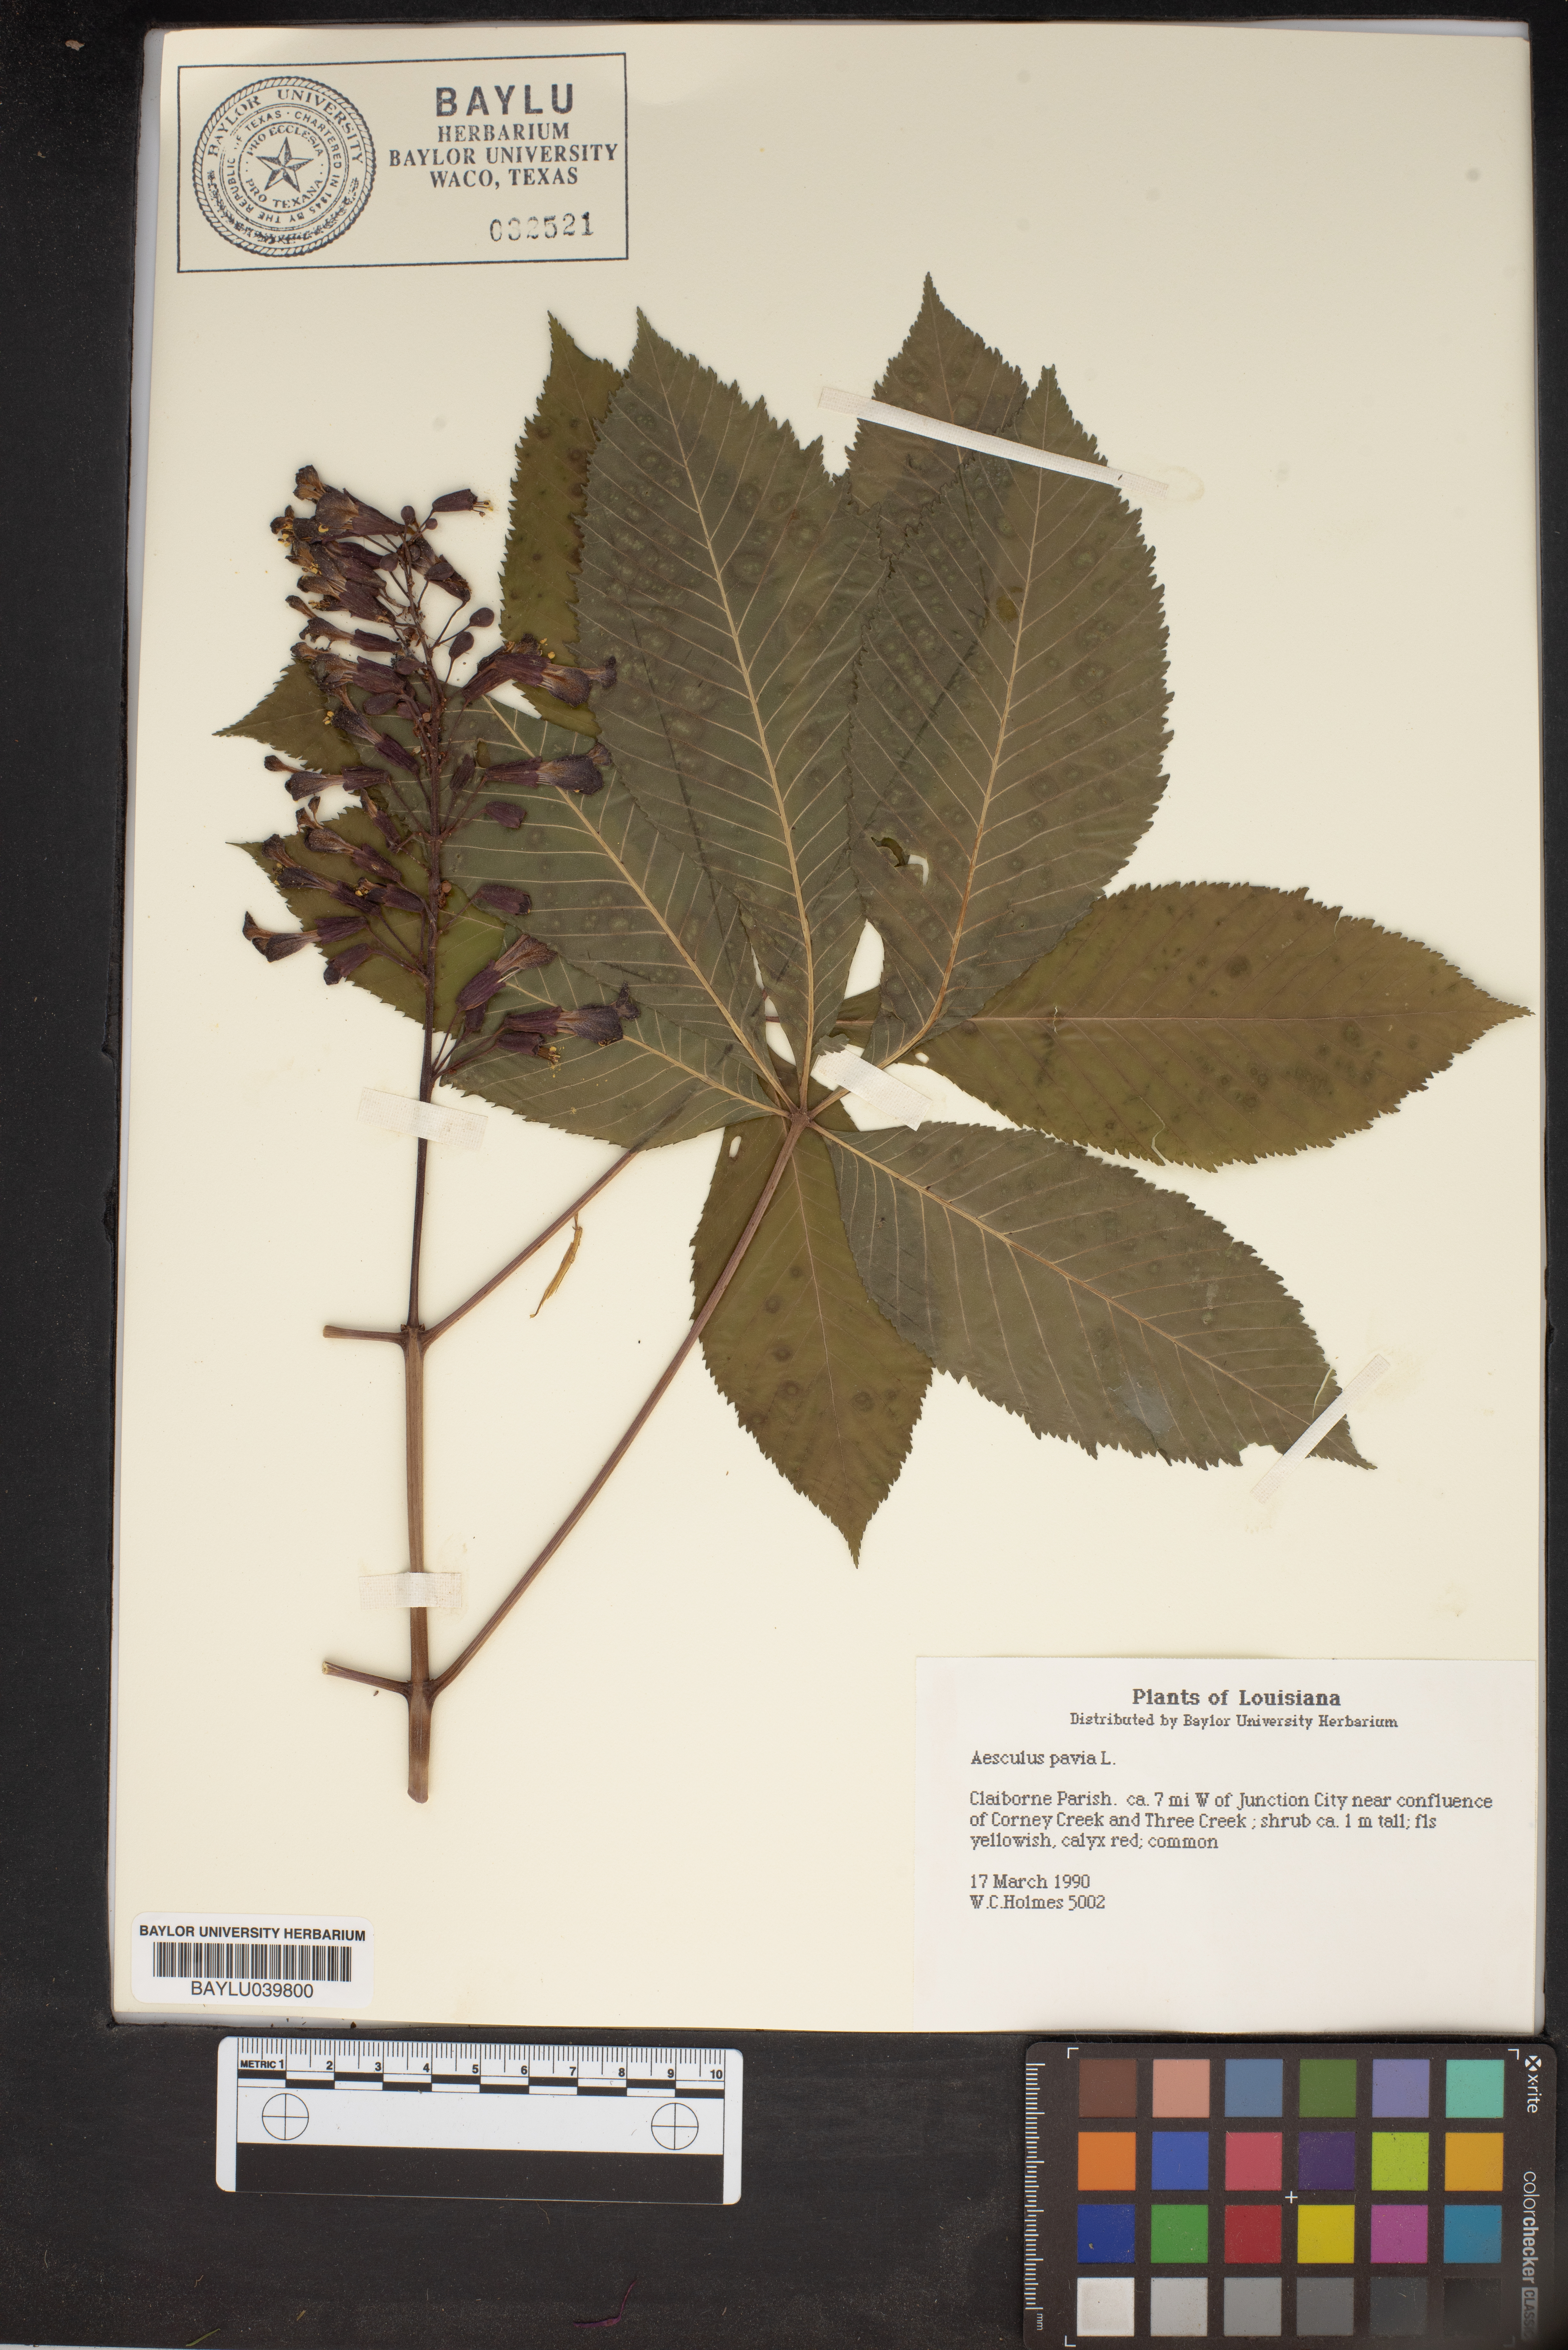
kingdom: Plantae
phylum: Tracheophyta
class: Magnoliopsida
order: Sapindales
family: Sapindaceae
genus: Aesculus
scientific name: Aesculus pavia
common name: Red buckeye
